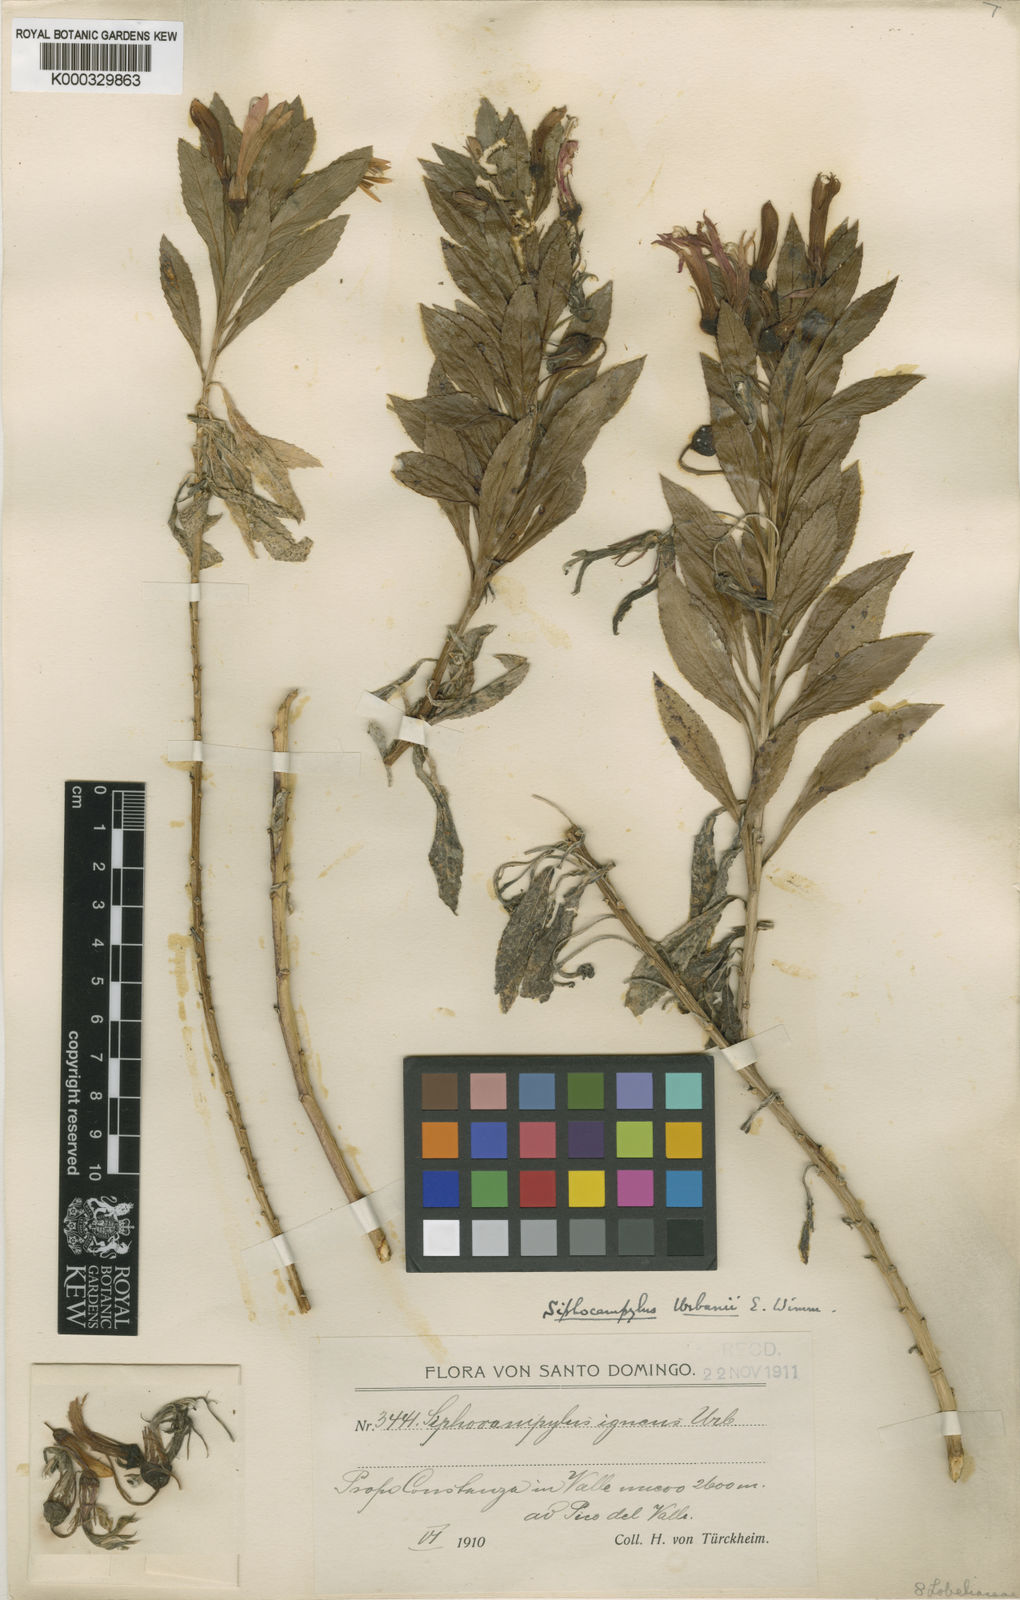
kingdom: Plantae
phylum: Tracheophyta
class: Magnoliopsida
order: Asterales
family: Campanulaceae
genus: Siphocampylus
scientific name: Siphocampylus igneus
